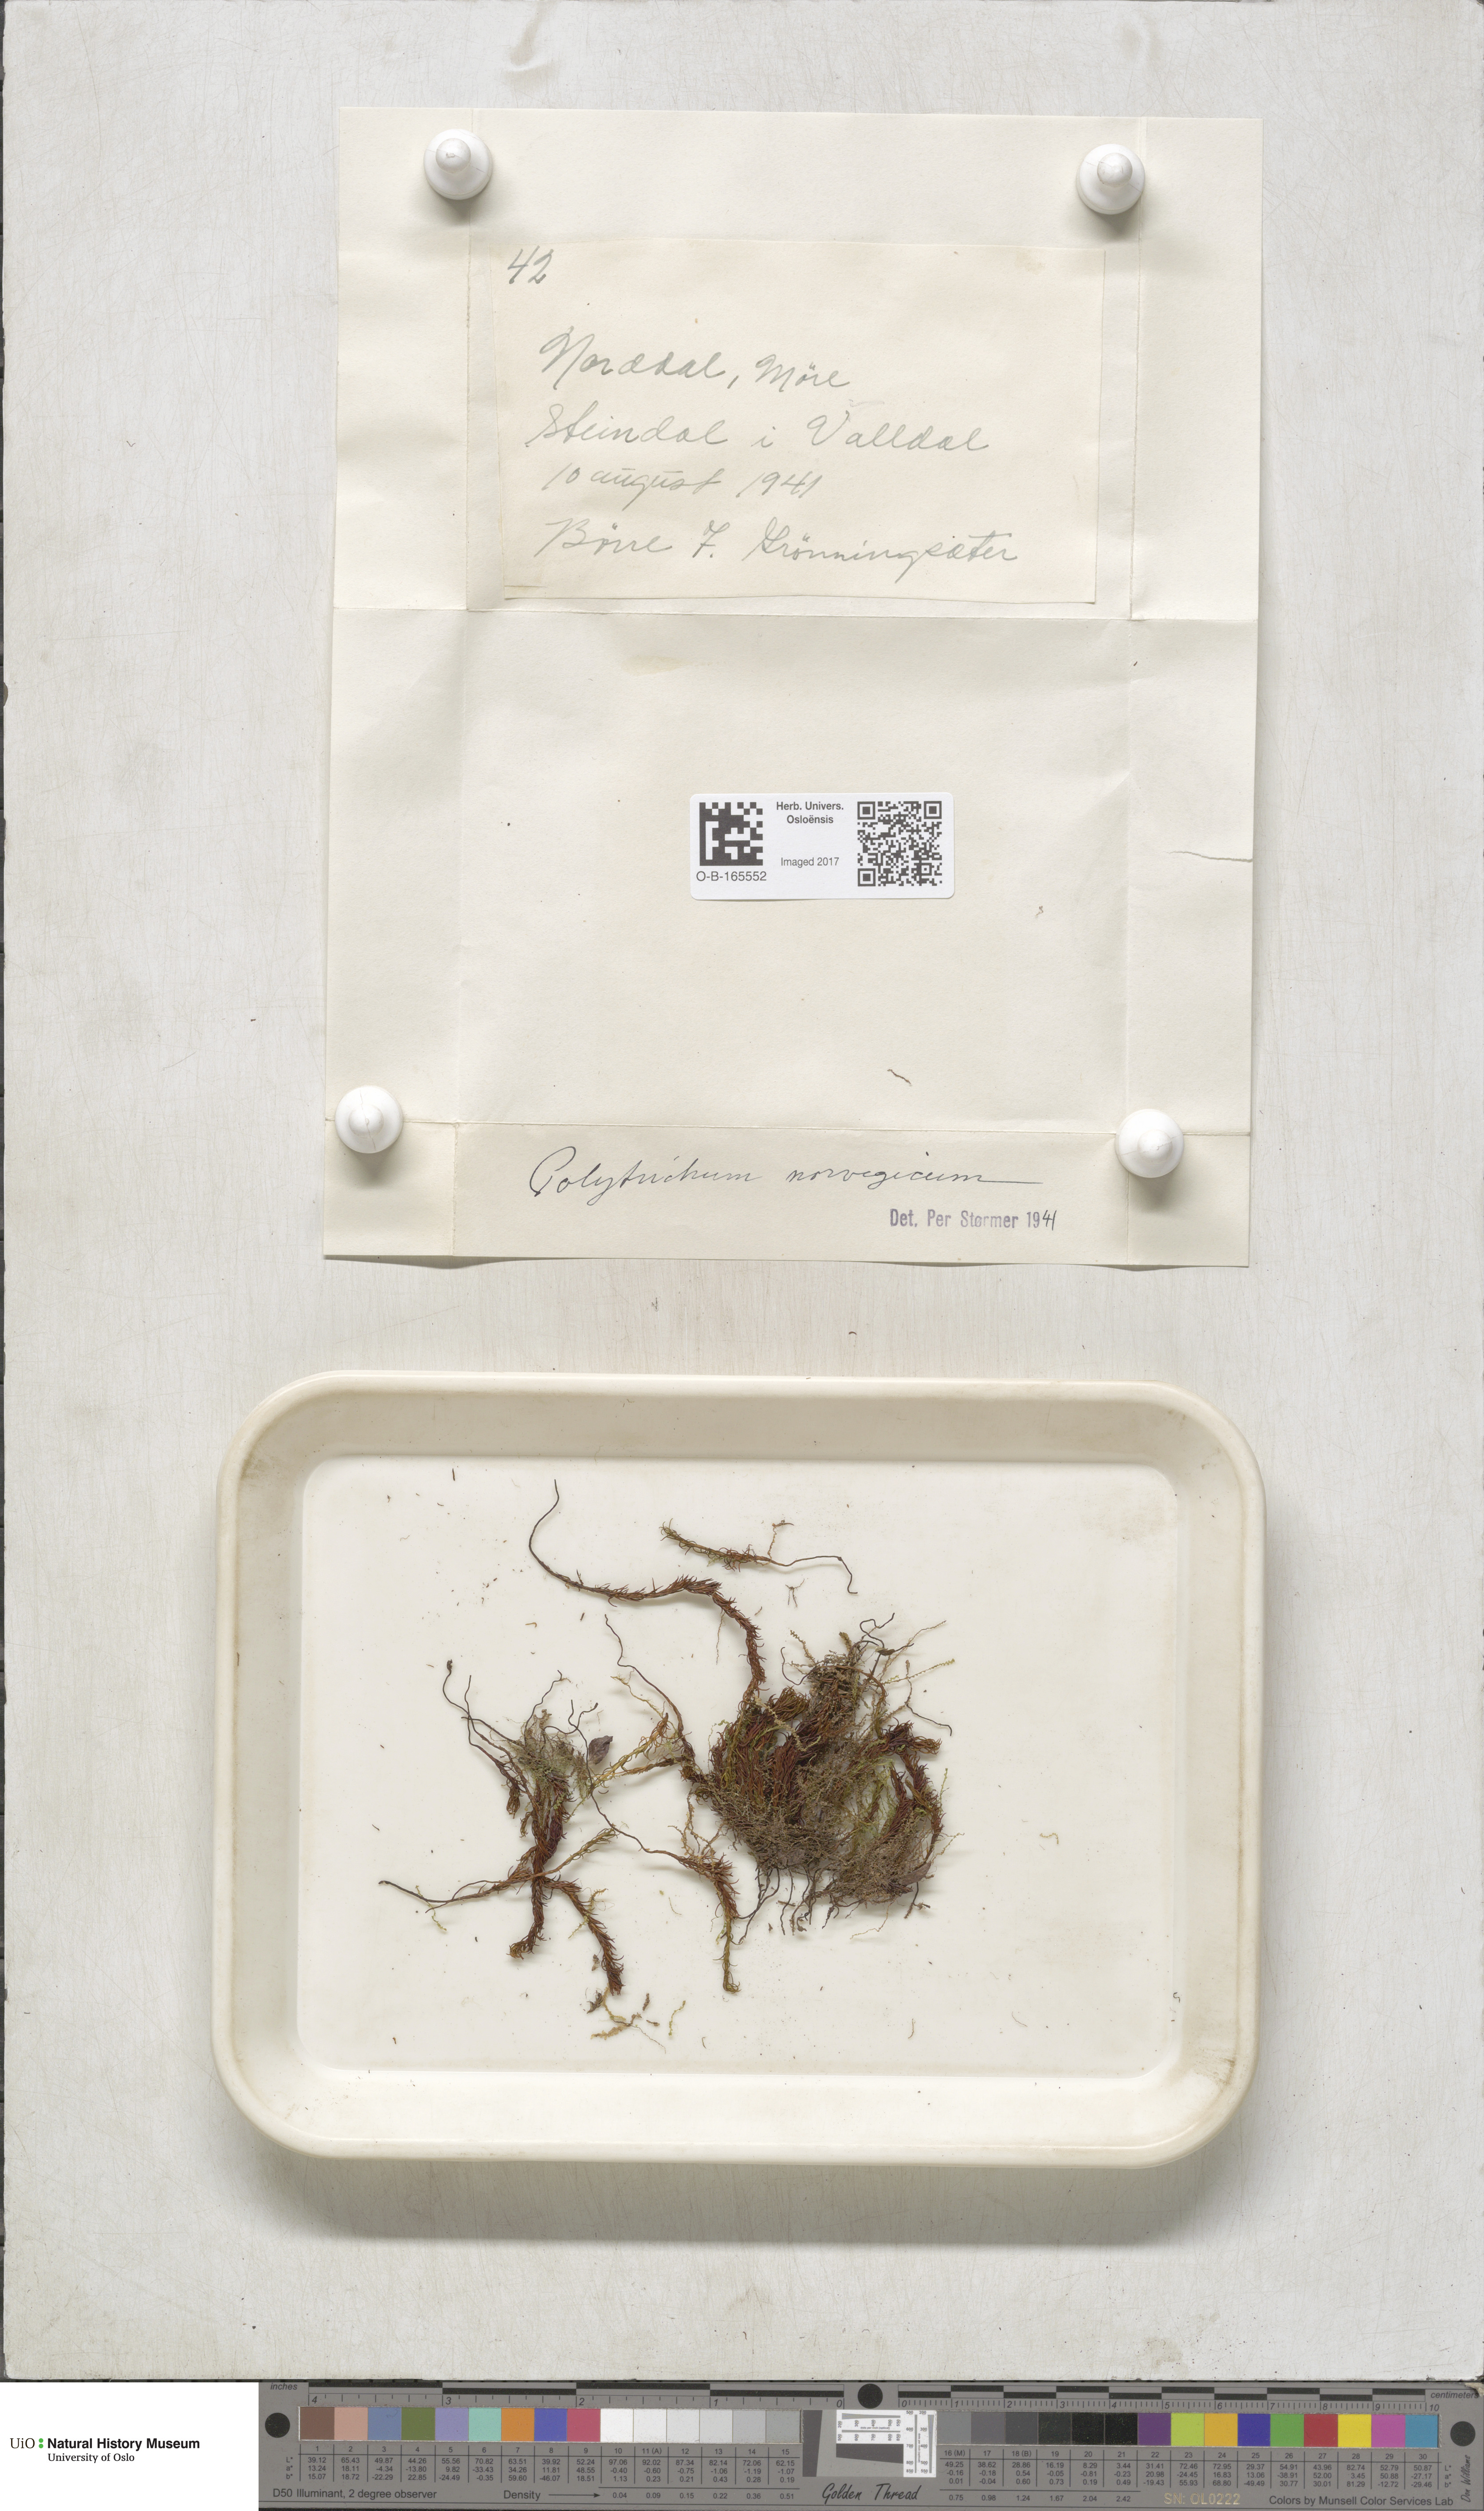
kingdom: Plantae
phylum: Bryophyta
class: Polytrichopsida
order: Polytrichales
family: Polytrichaceae
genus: Polytrichastrum
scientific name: Polytrichastrum sexangulare
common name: Northern haircap
